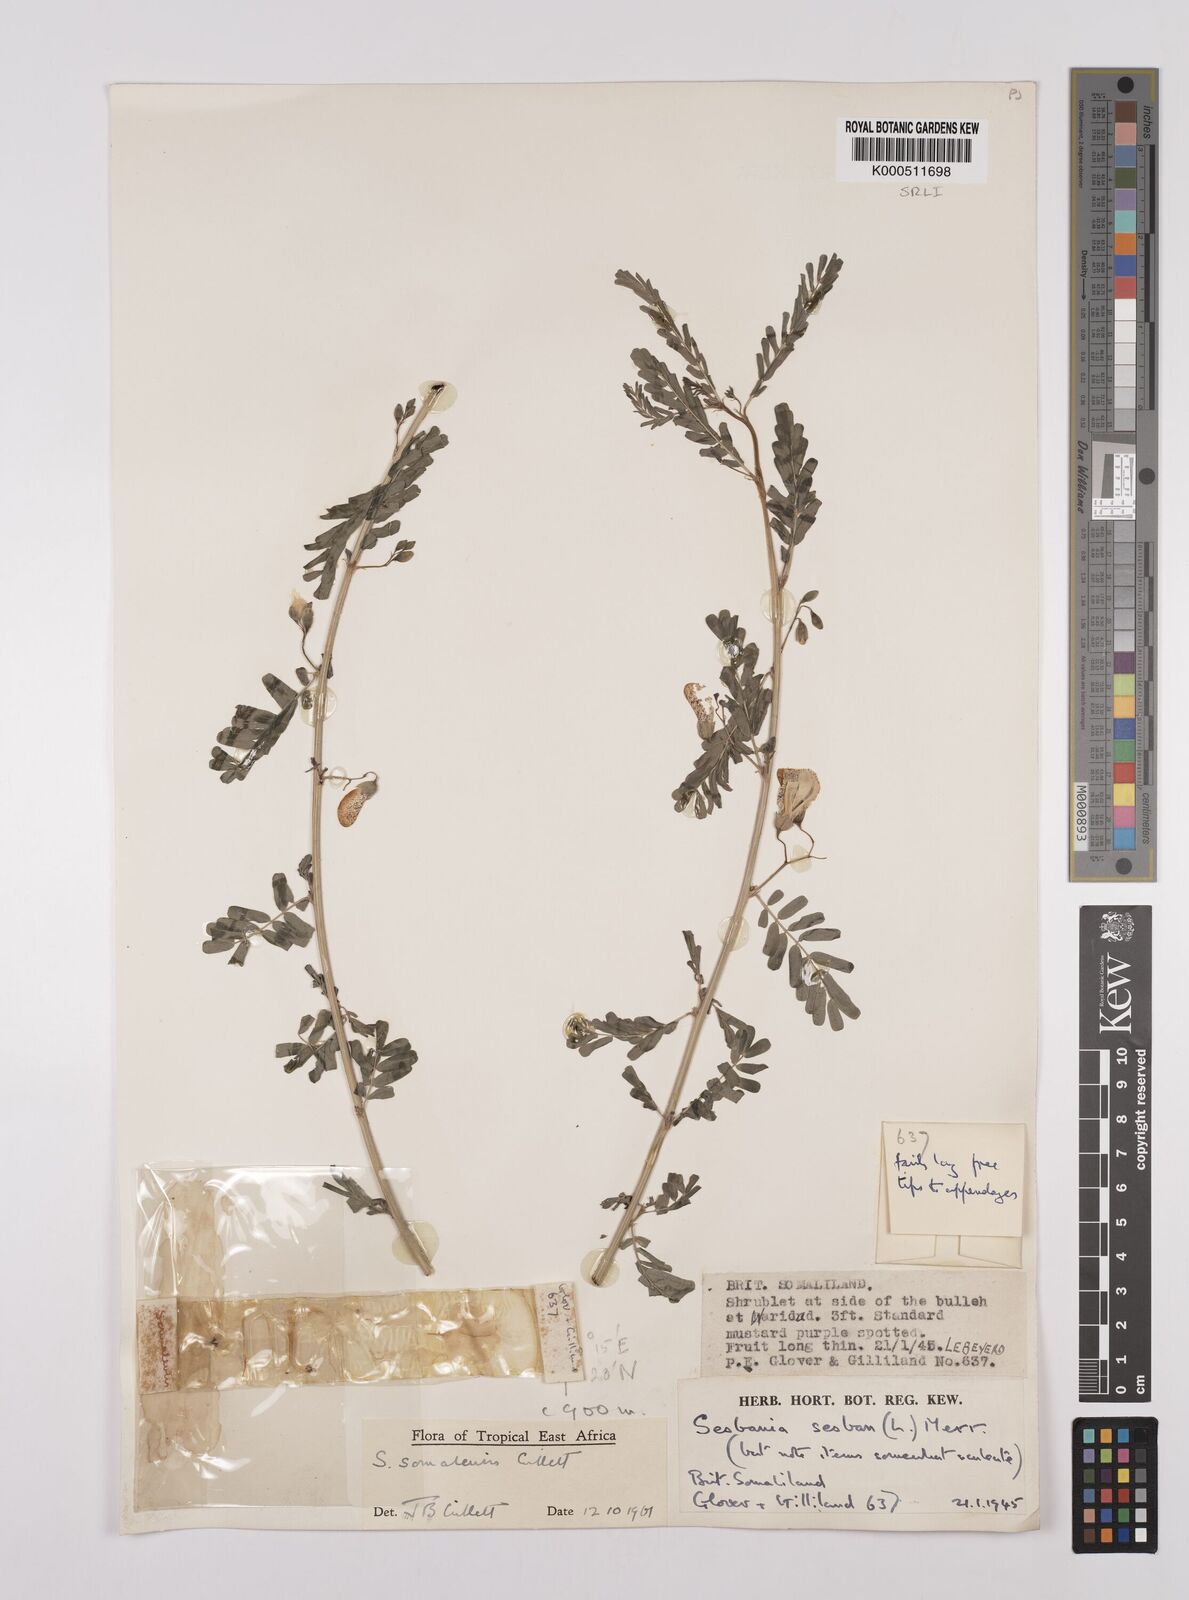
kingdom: Plantae
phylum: Tracheophyta
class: Magnoliopsida
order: Fabales
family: Fabaceae
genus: Sesbania
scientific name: Sesbania somalensis
